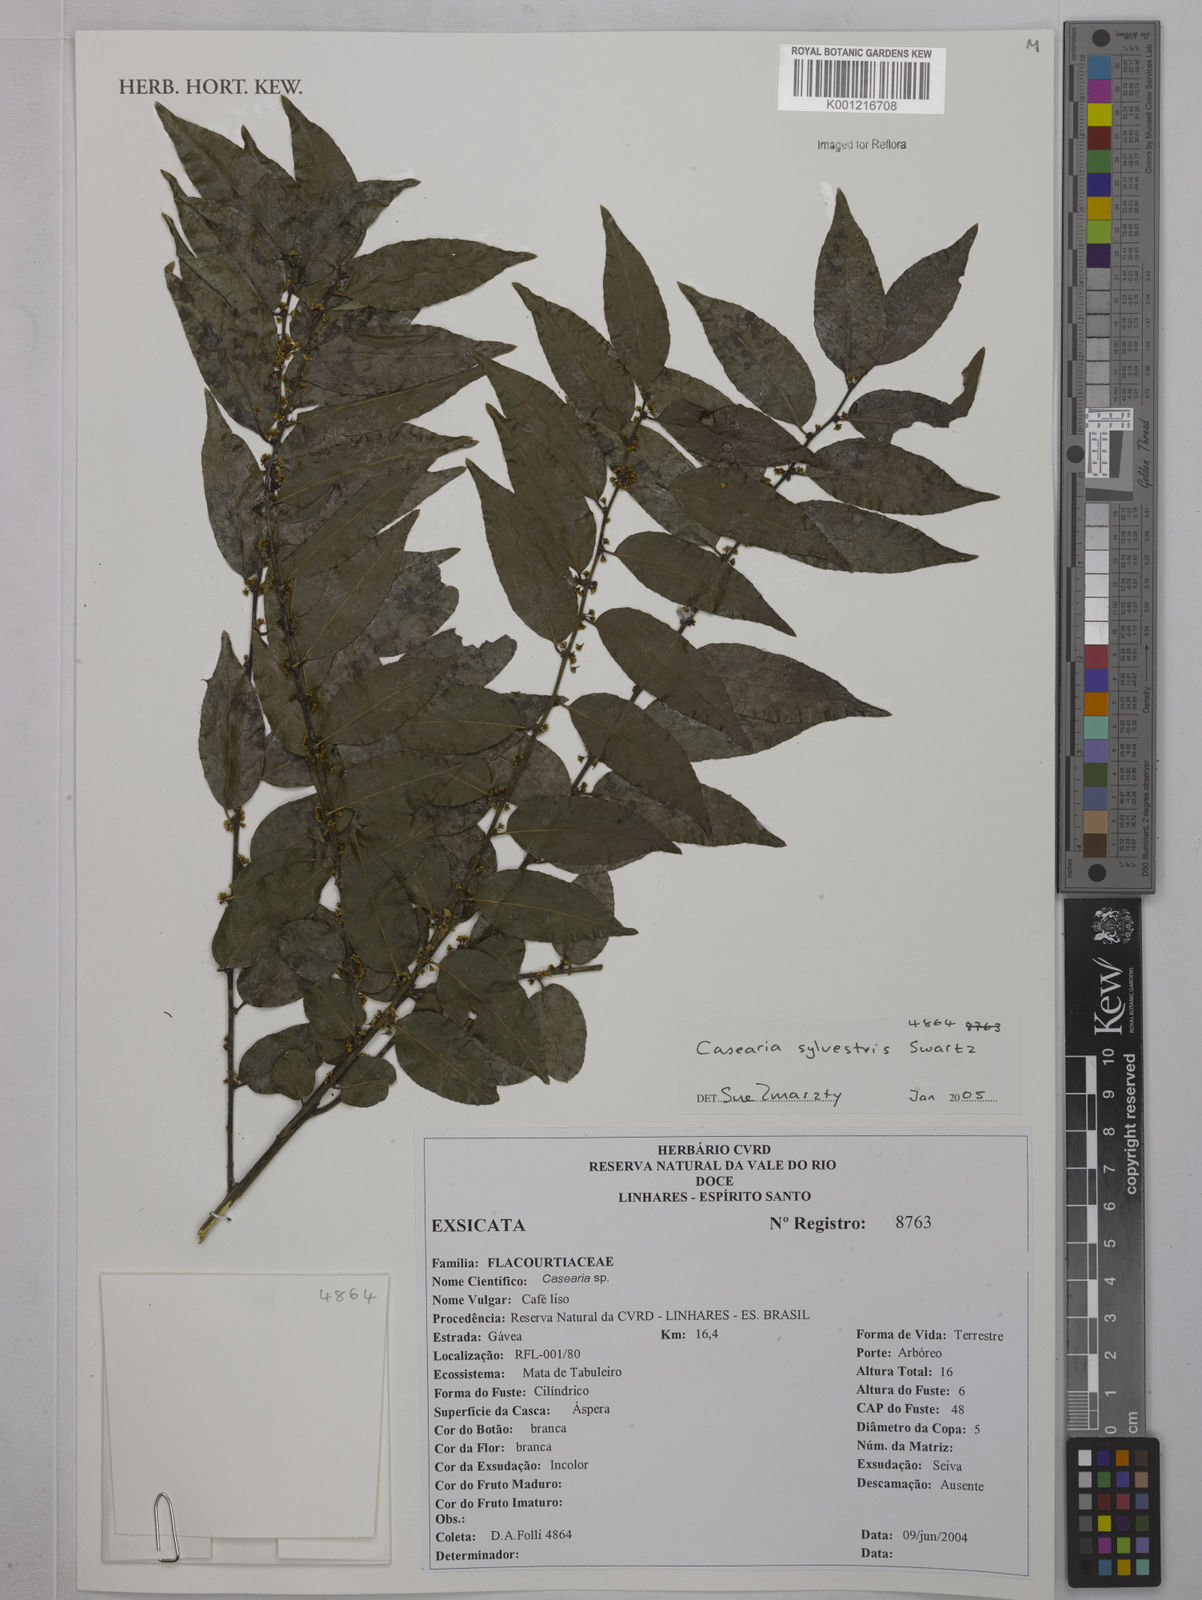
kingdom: Plantae
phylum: Tracheophyta
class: Magnoliopsida
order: Malpighiales
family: Salicaceae
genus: Casearia
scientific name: Casearia sylvestris
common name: Wild sage
